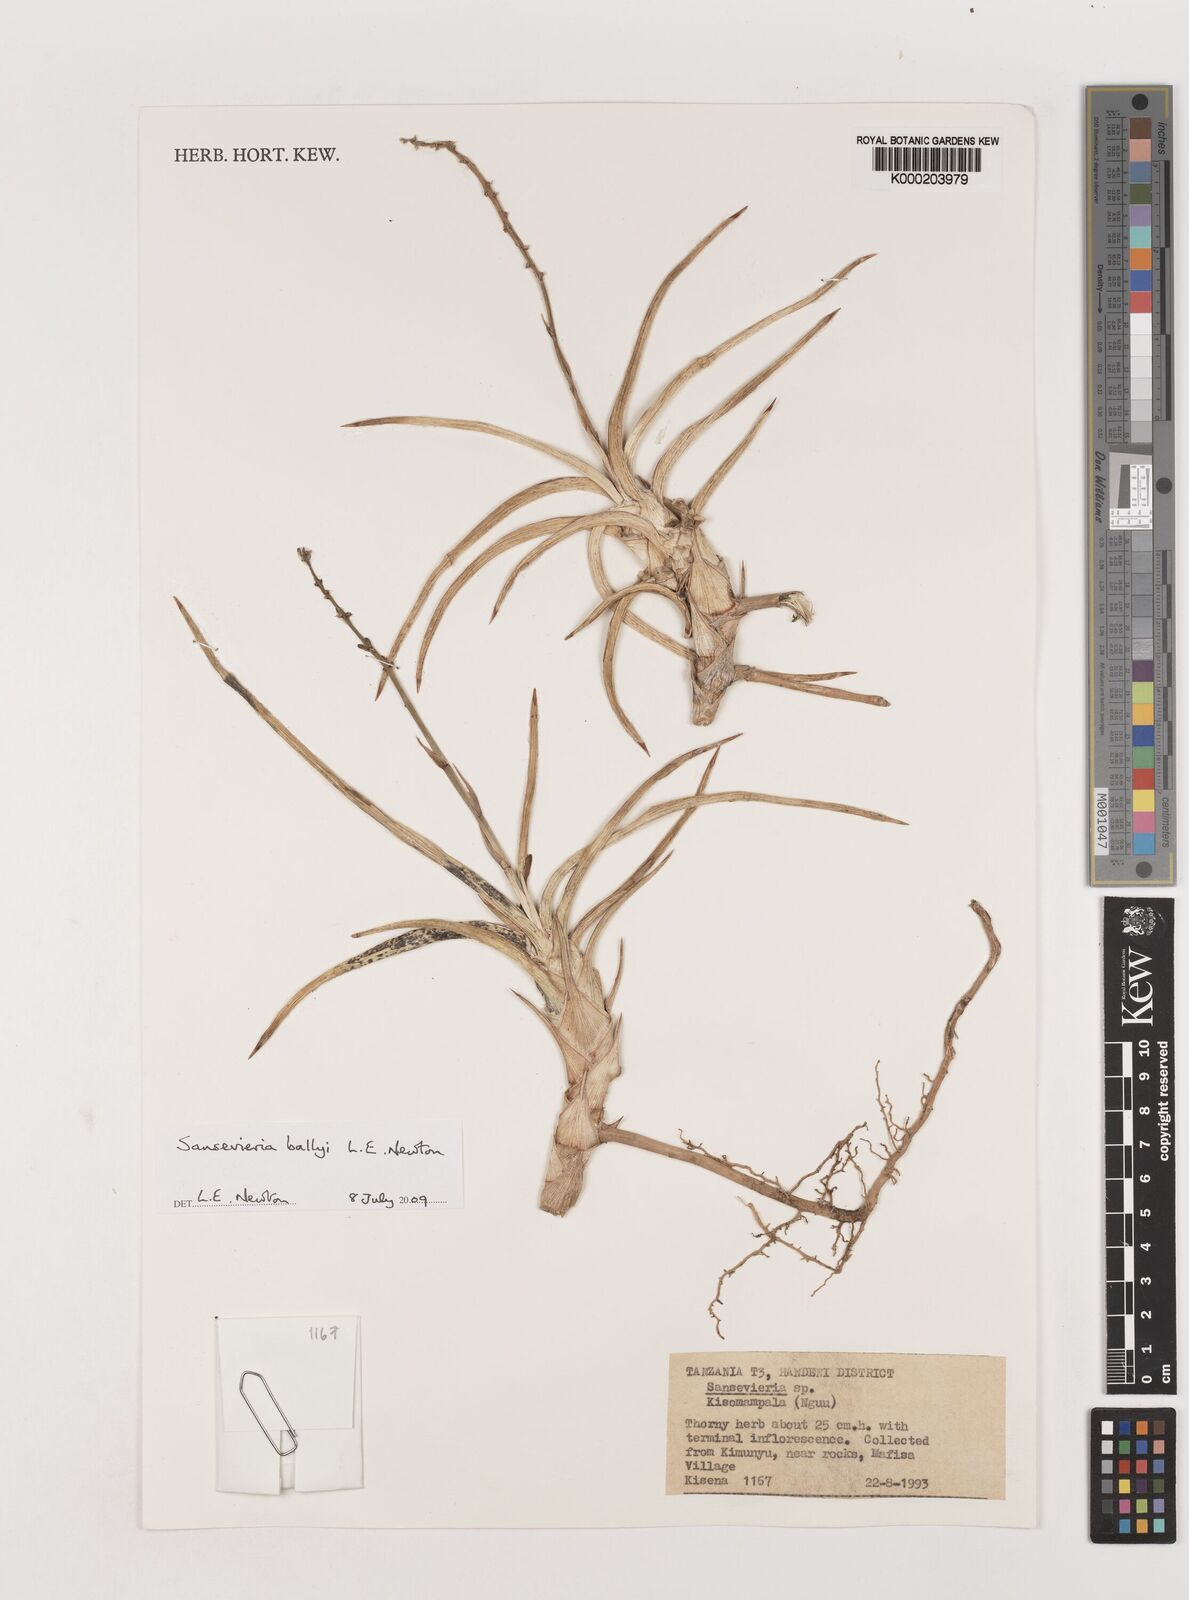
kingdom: Plantae
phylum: Tracheophyta
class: Liliopsida
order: Asparagales
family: Asparagaceae
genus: Dracaena
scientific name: Dracaena ballyi
